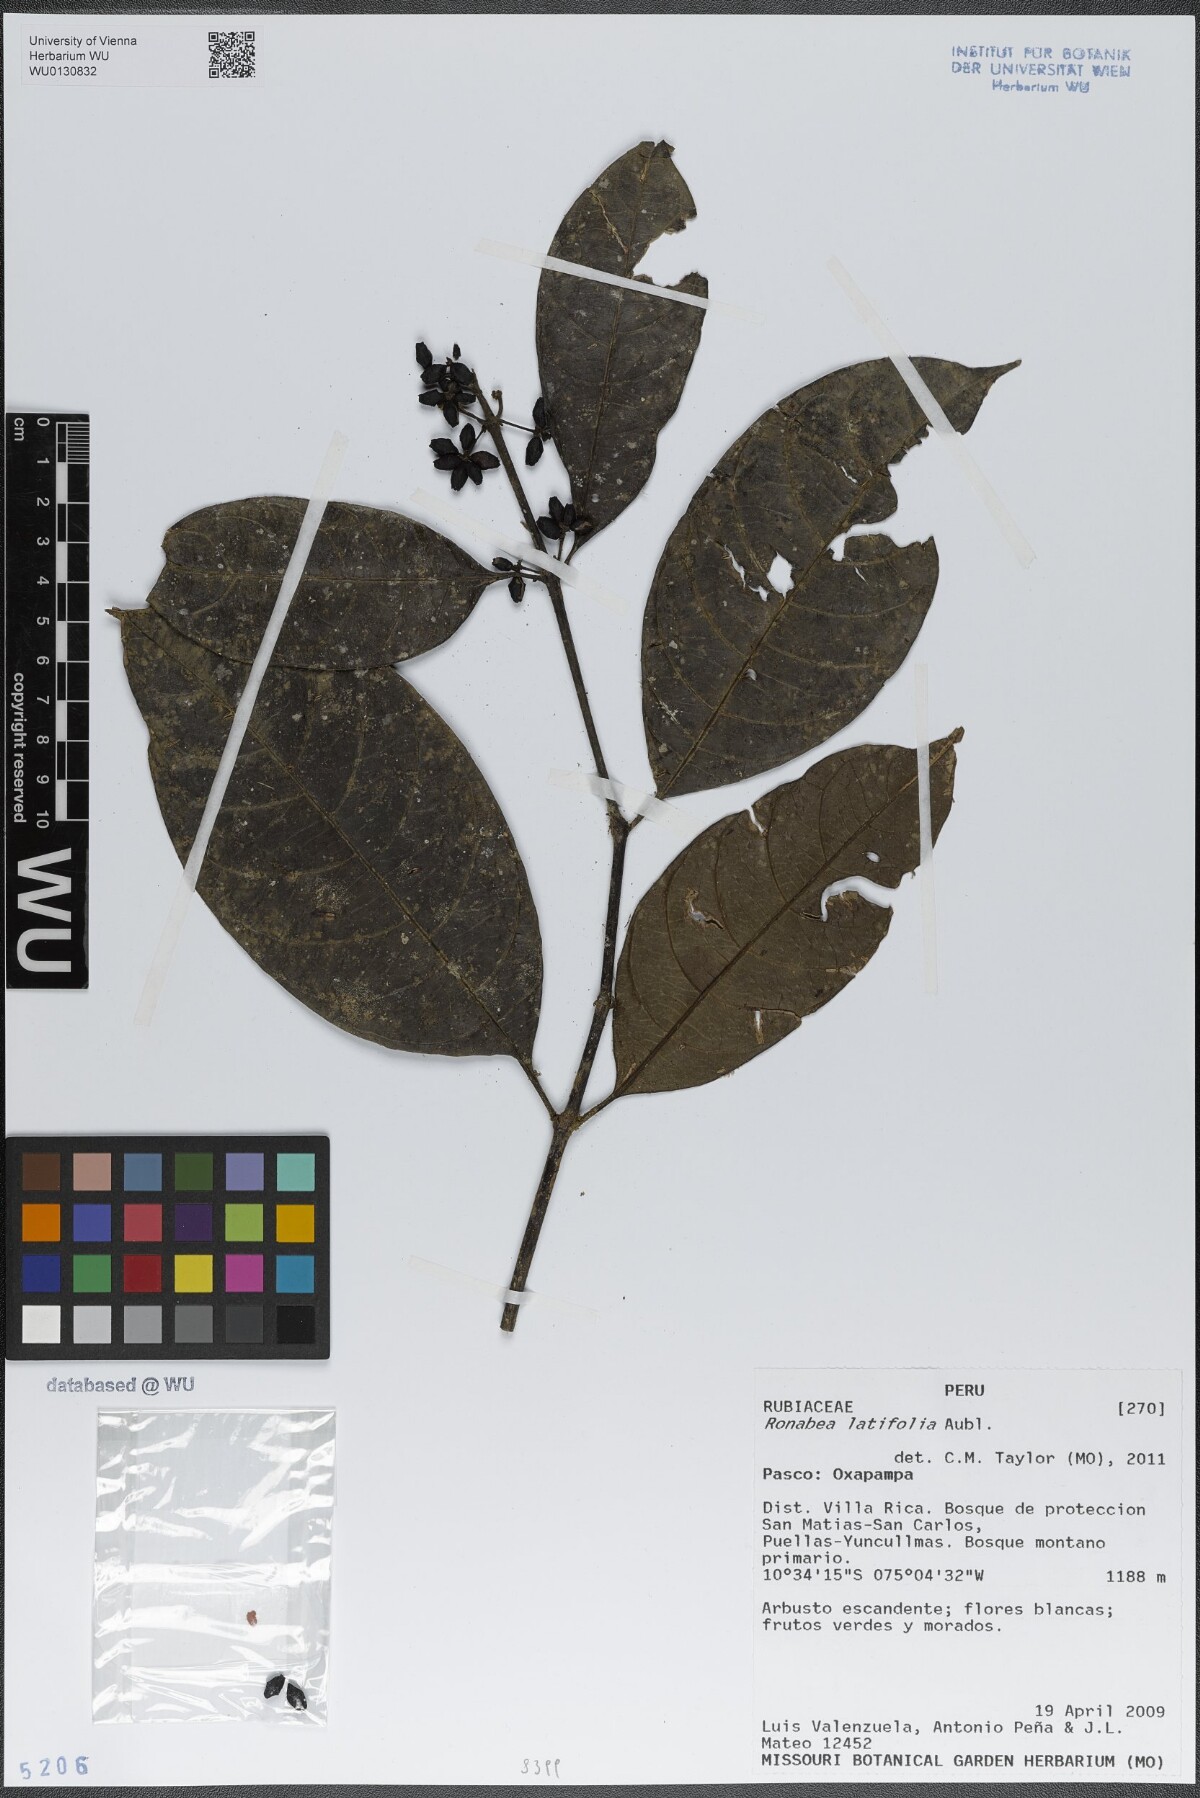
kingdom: Plantae
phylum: Tracheophyta
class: Magnoliopsida
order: Gentianales
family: Rubiaceae
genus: Ronabea
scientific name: Ronabea latifolia
